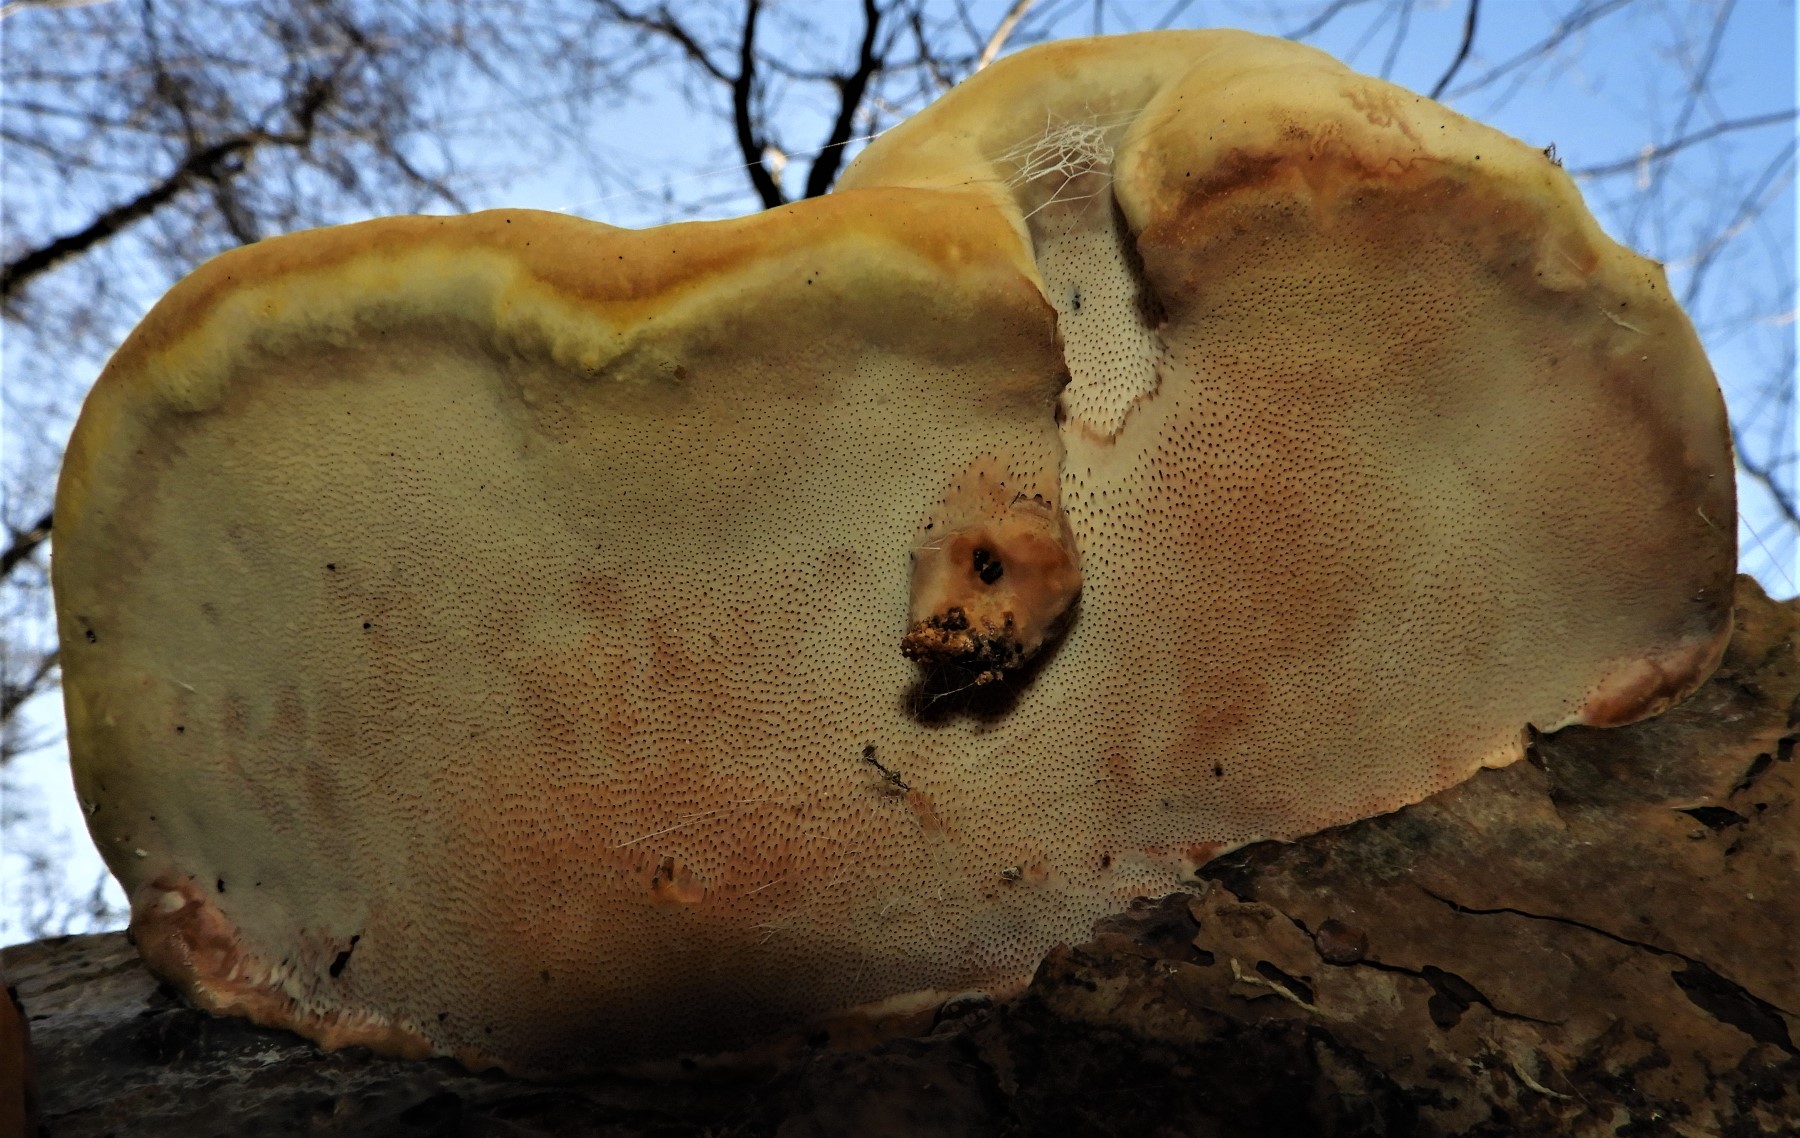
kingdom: Fungi
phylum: Basidiomycota
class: Agaricomycetes
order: Polyporales
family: Fomitopsidaceae
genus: Fomitopsis
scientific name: Fomitopsis pinicola
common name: randbæltet hovporesvamp
